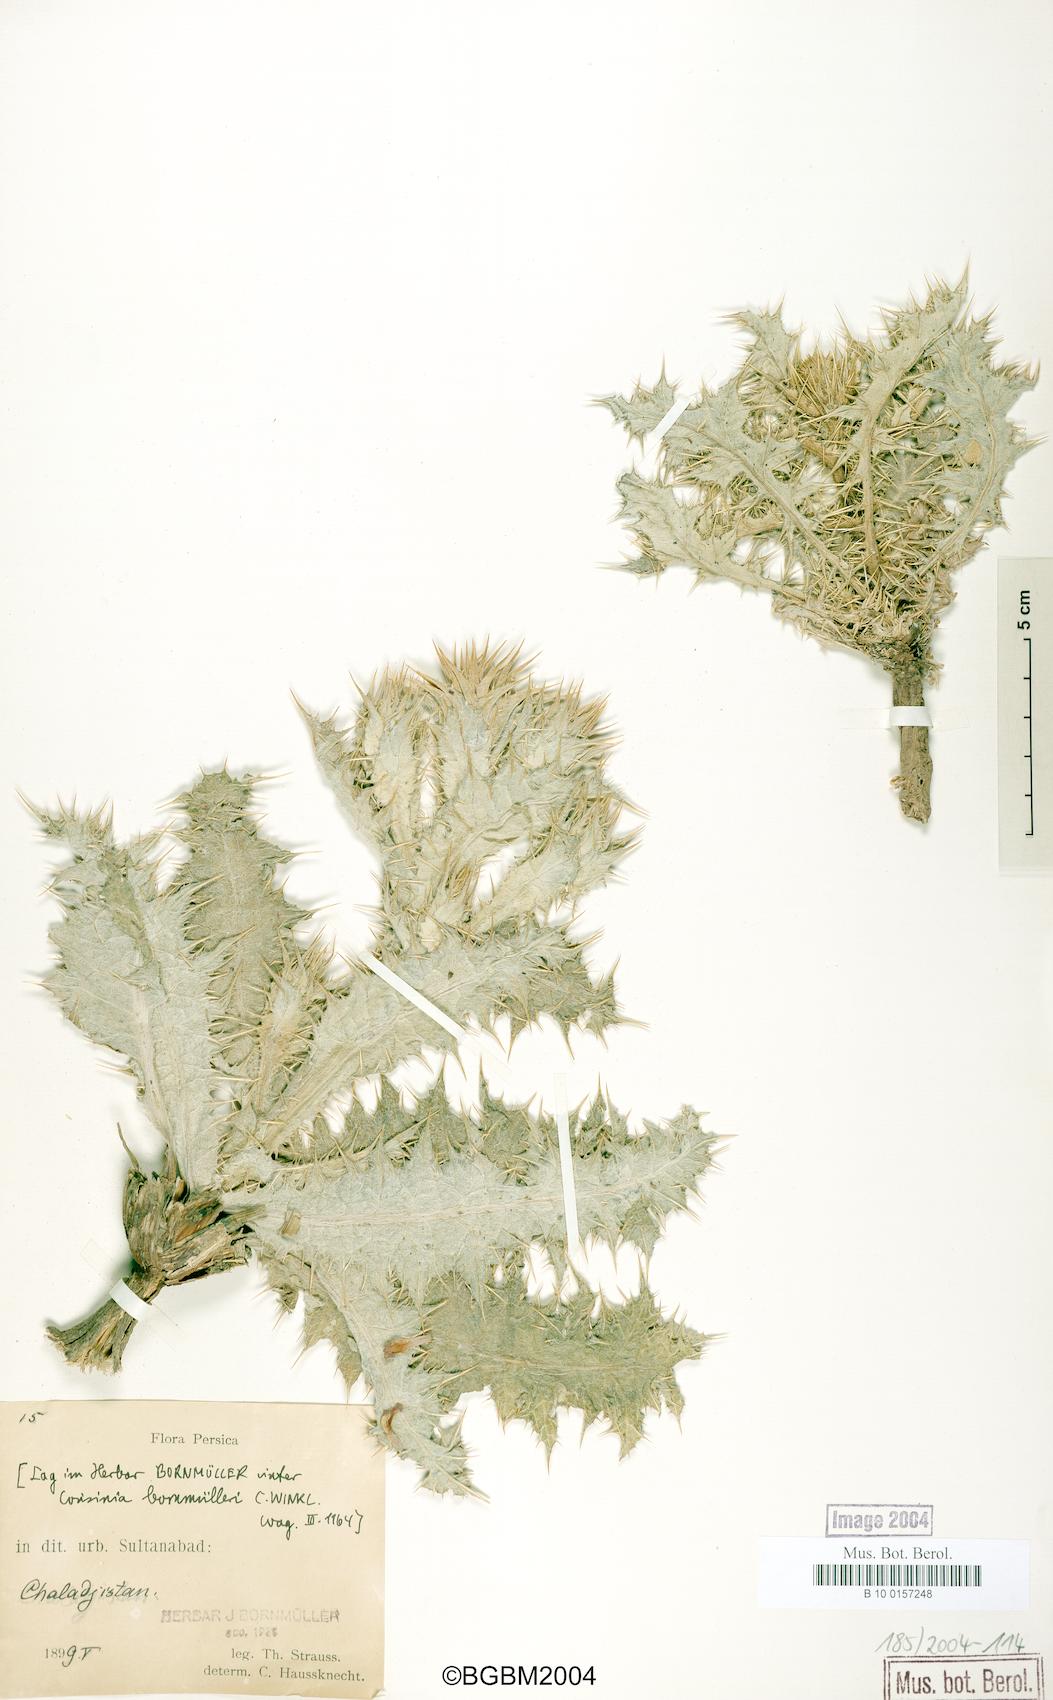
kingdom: Plantae
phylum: Tracheophyta
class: Magnoliopsida
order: Asterales
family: Asteraceae
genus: Cousinia
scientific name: Cousinia onopordioides
